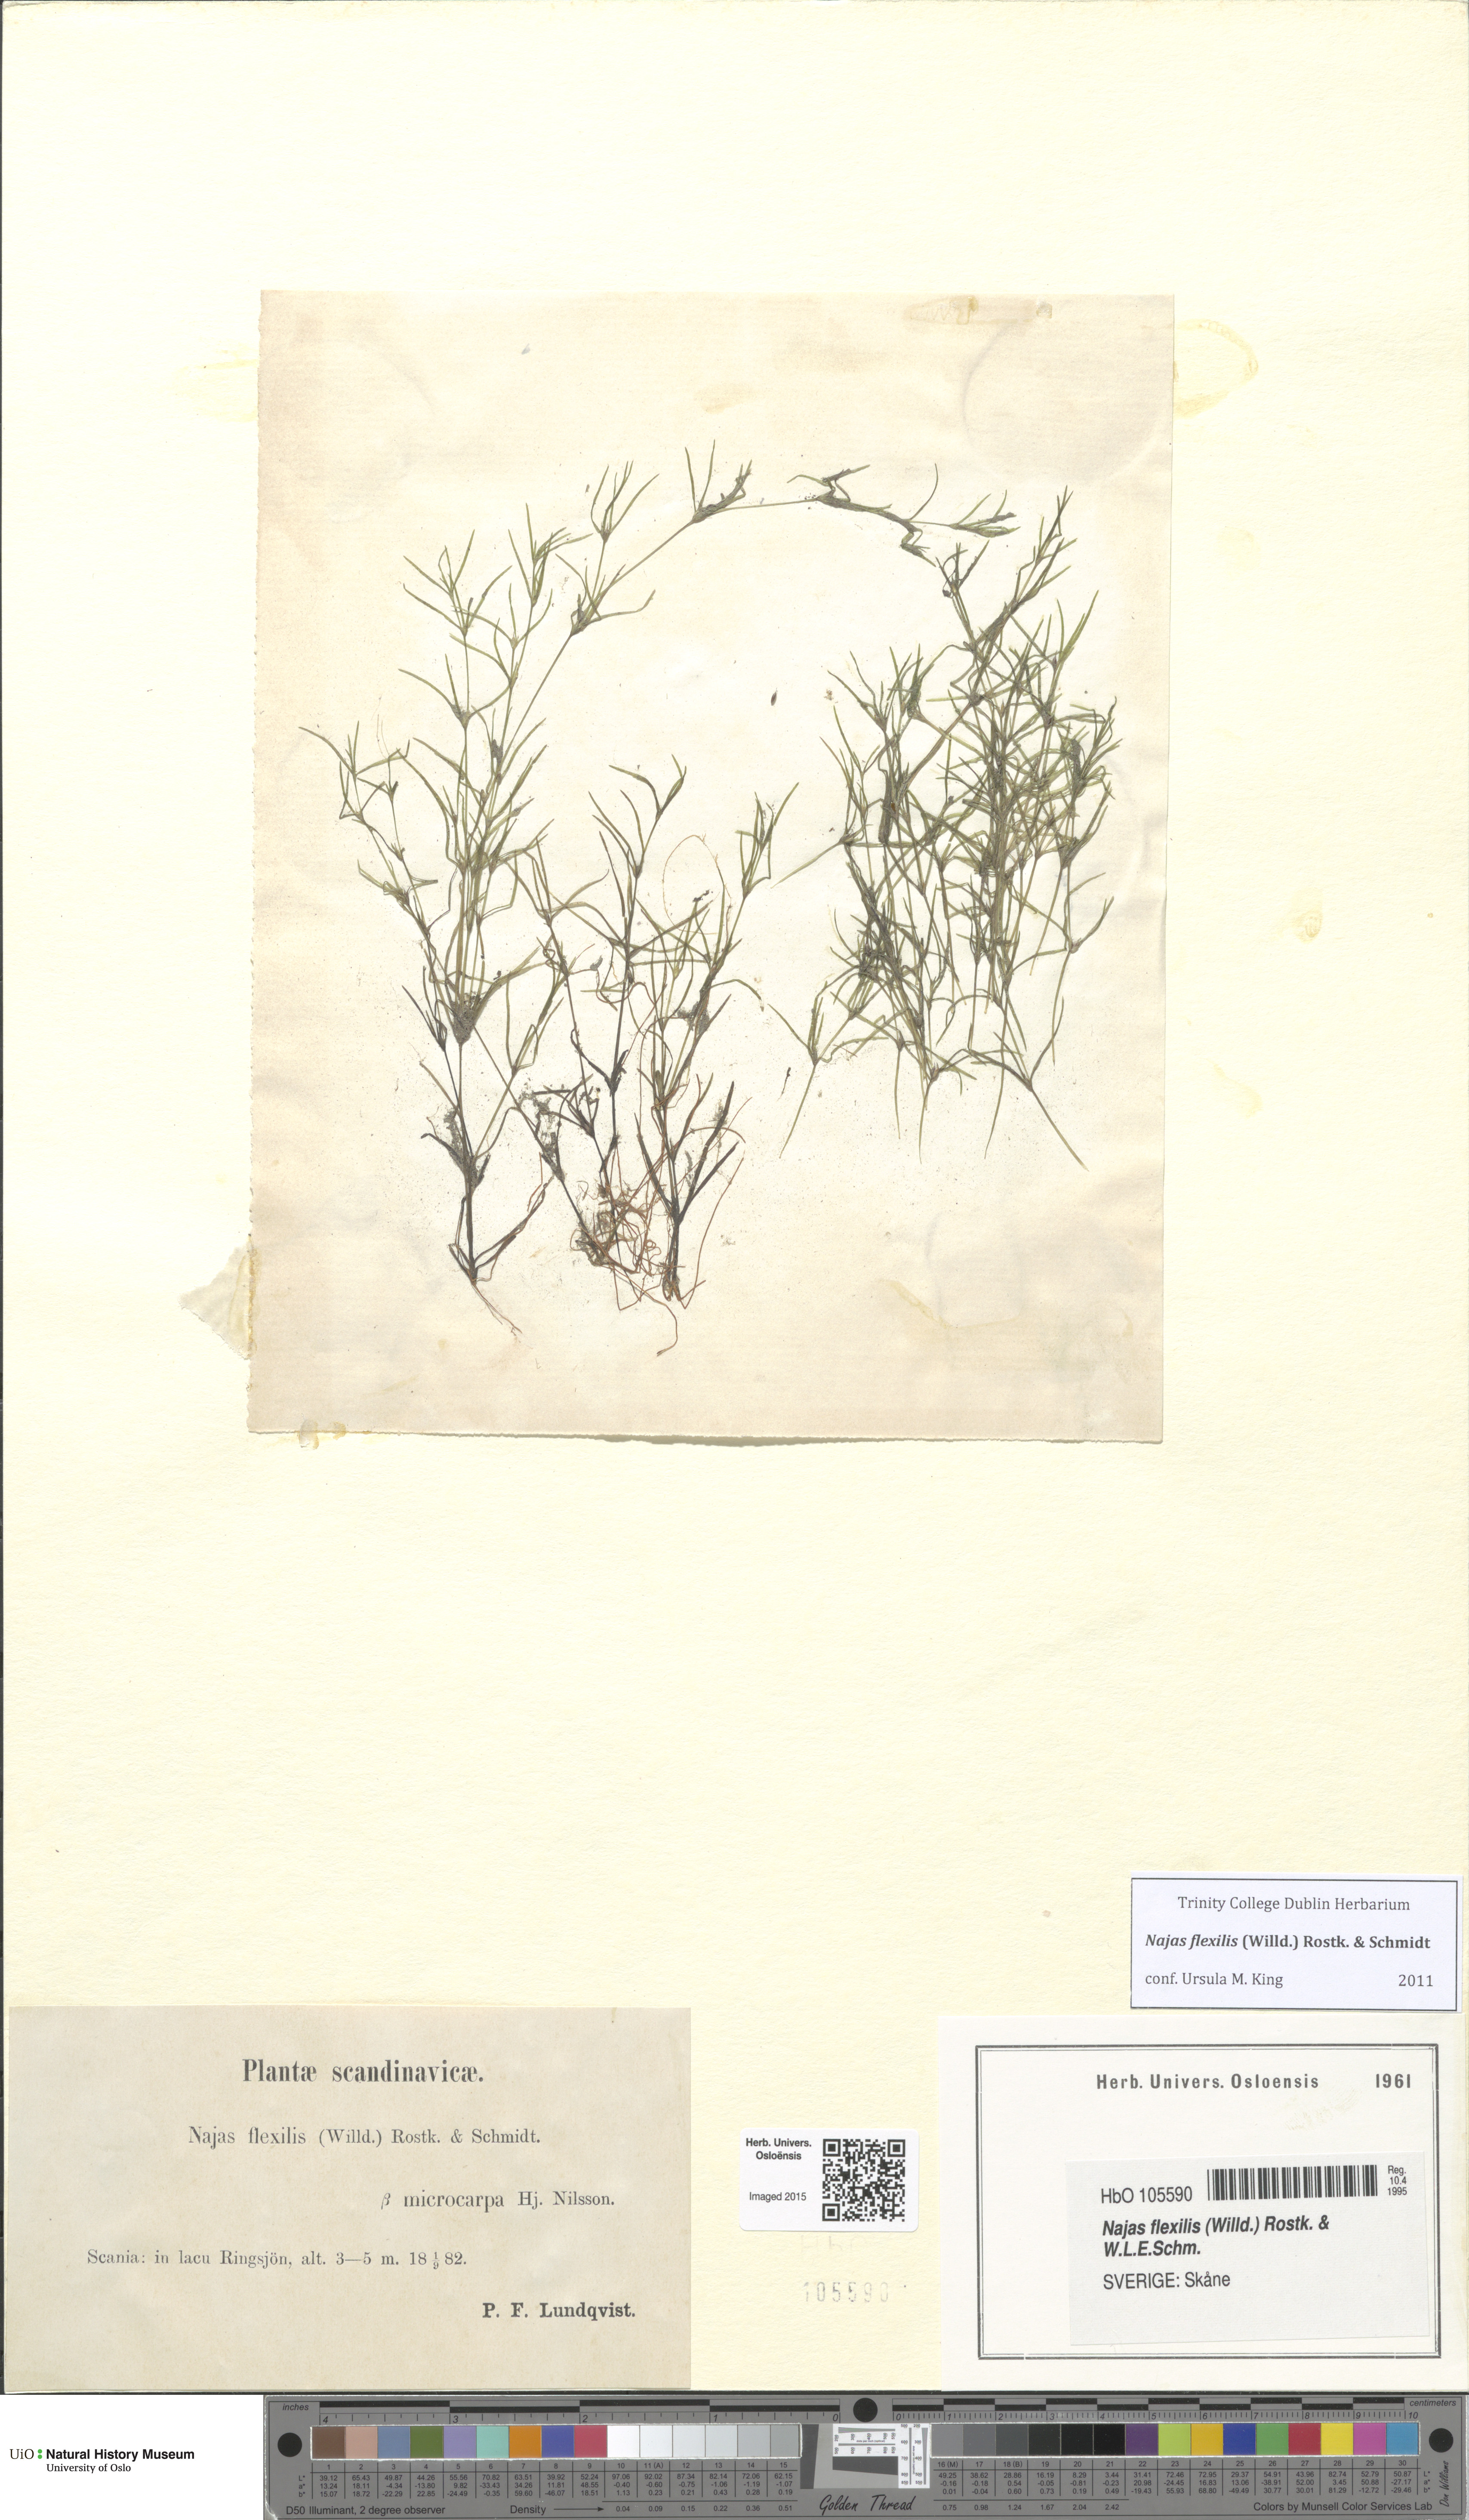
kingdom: Plantae
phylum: Tracheophyta
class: Liliopsida
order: Alismatales
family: Hydrocharitaceae
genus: Najas
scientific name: Najas flexilis
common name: Slender naiad
